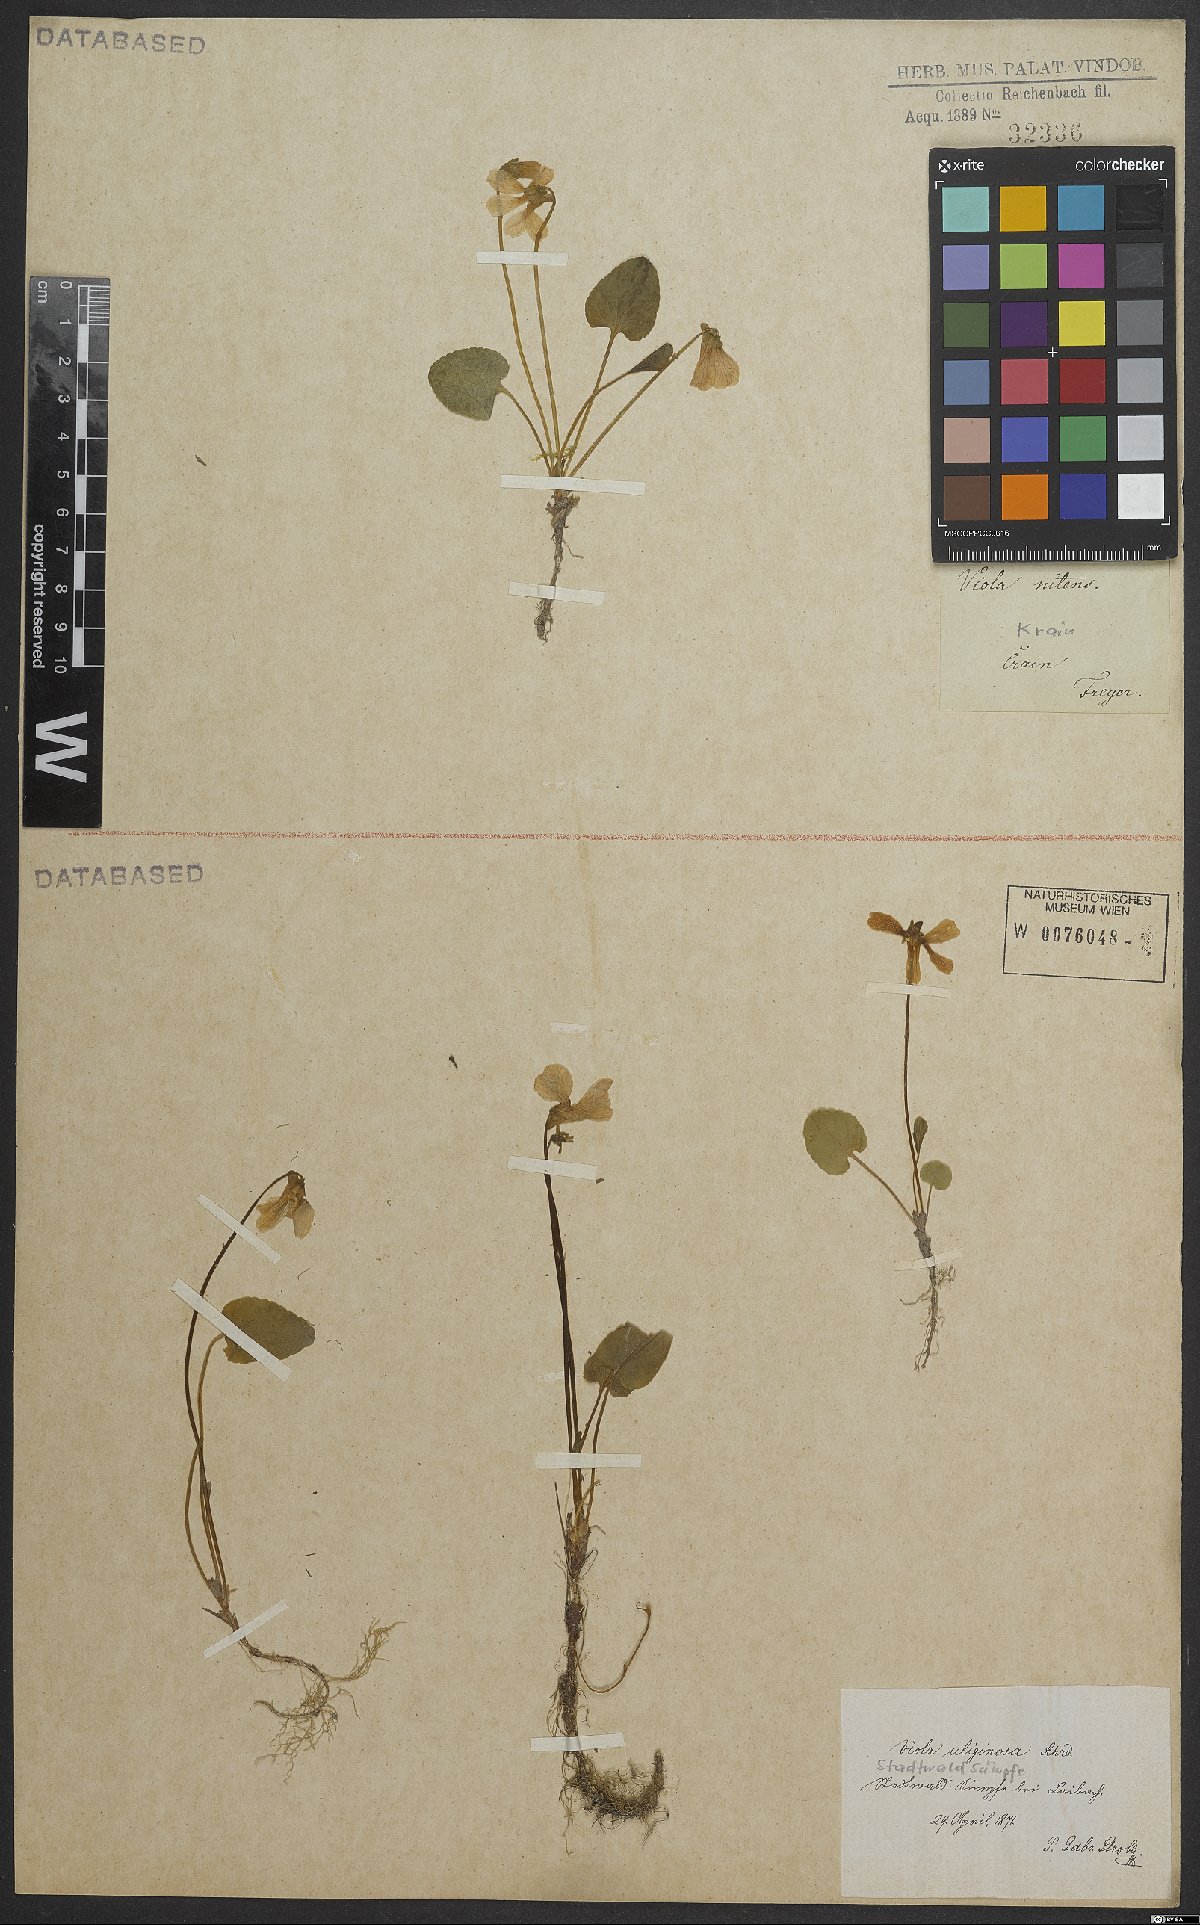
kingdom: Plantae
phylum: Tracheophyta
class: Magnoliopsida
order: Malpighiales
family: Violaceae
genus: Viola
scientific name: Viola uliginosa
